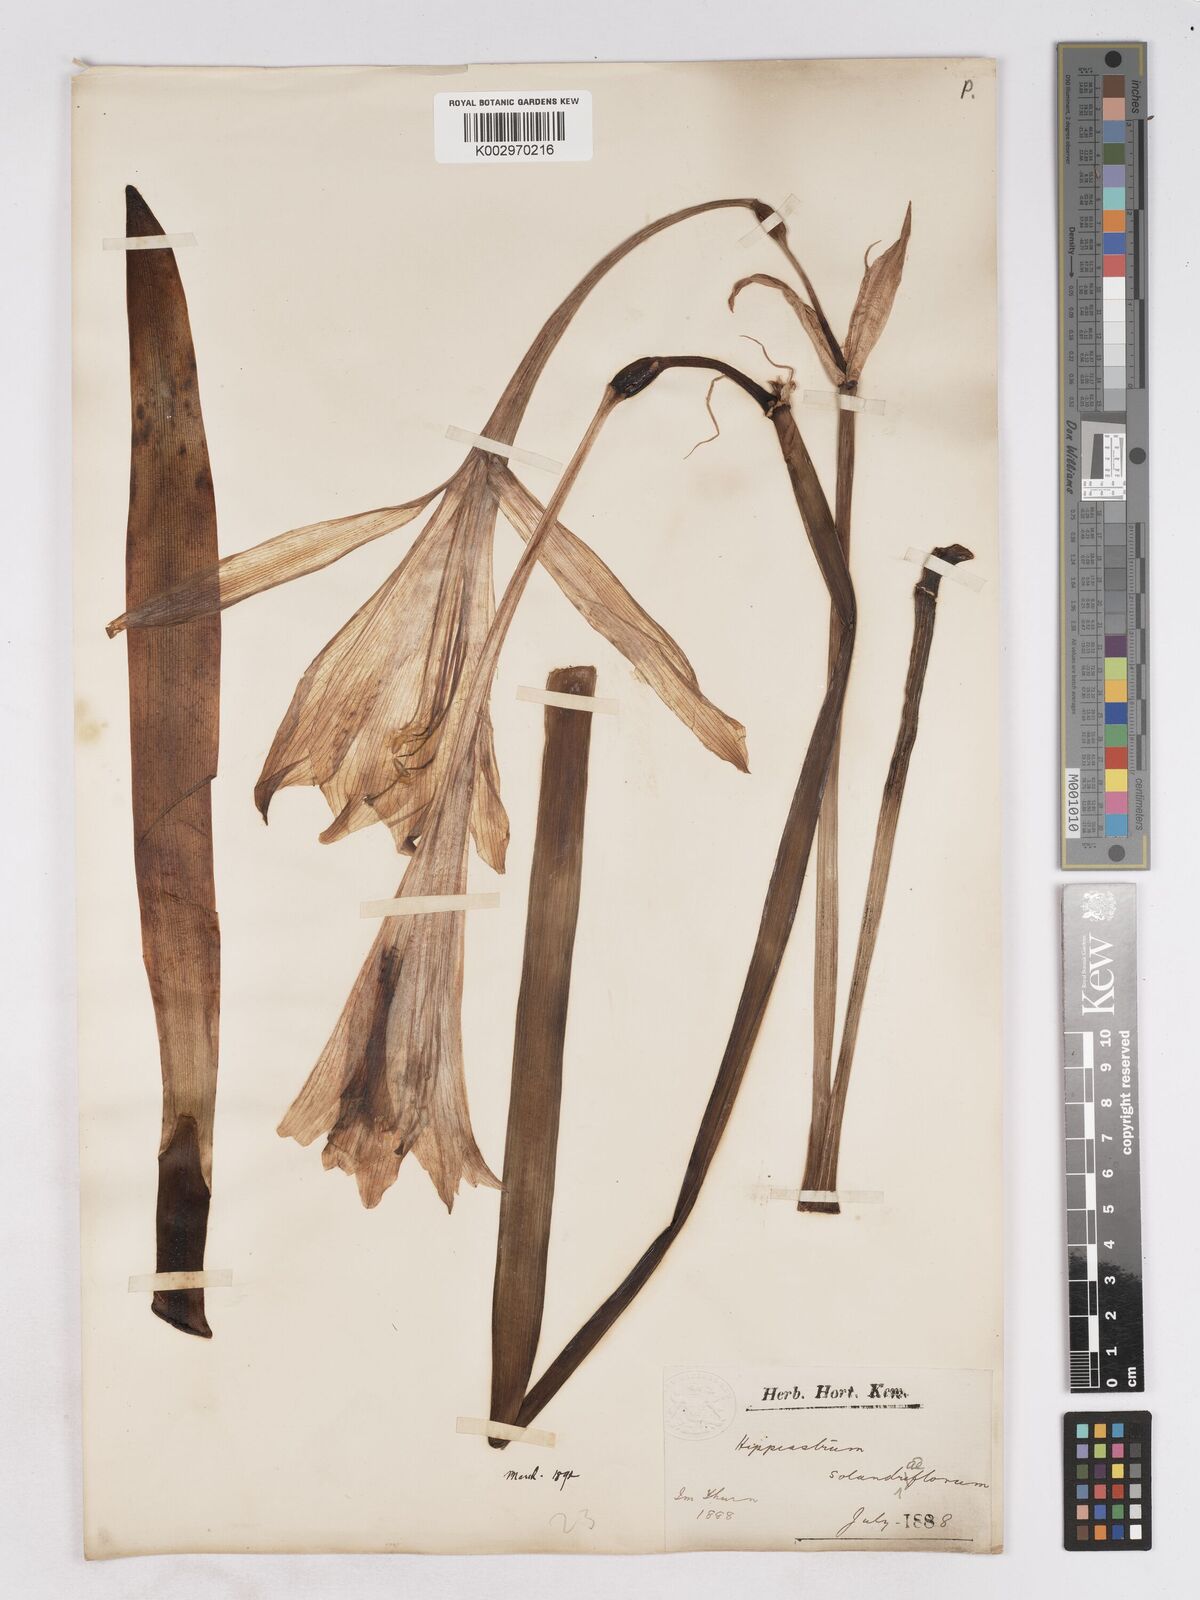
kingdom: Plantae
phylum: Tracheophyta
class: Liliopsida
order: Asparagales
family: Amaryllidaceae
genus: Hippeastrum
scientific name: Hippeastrum
